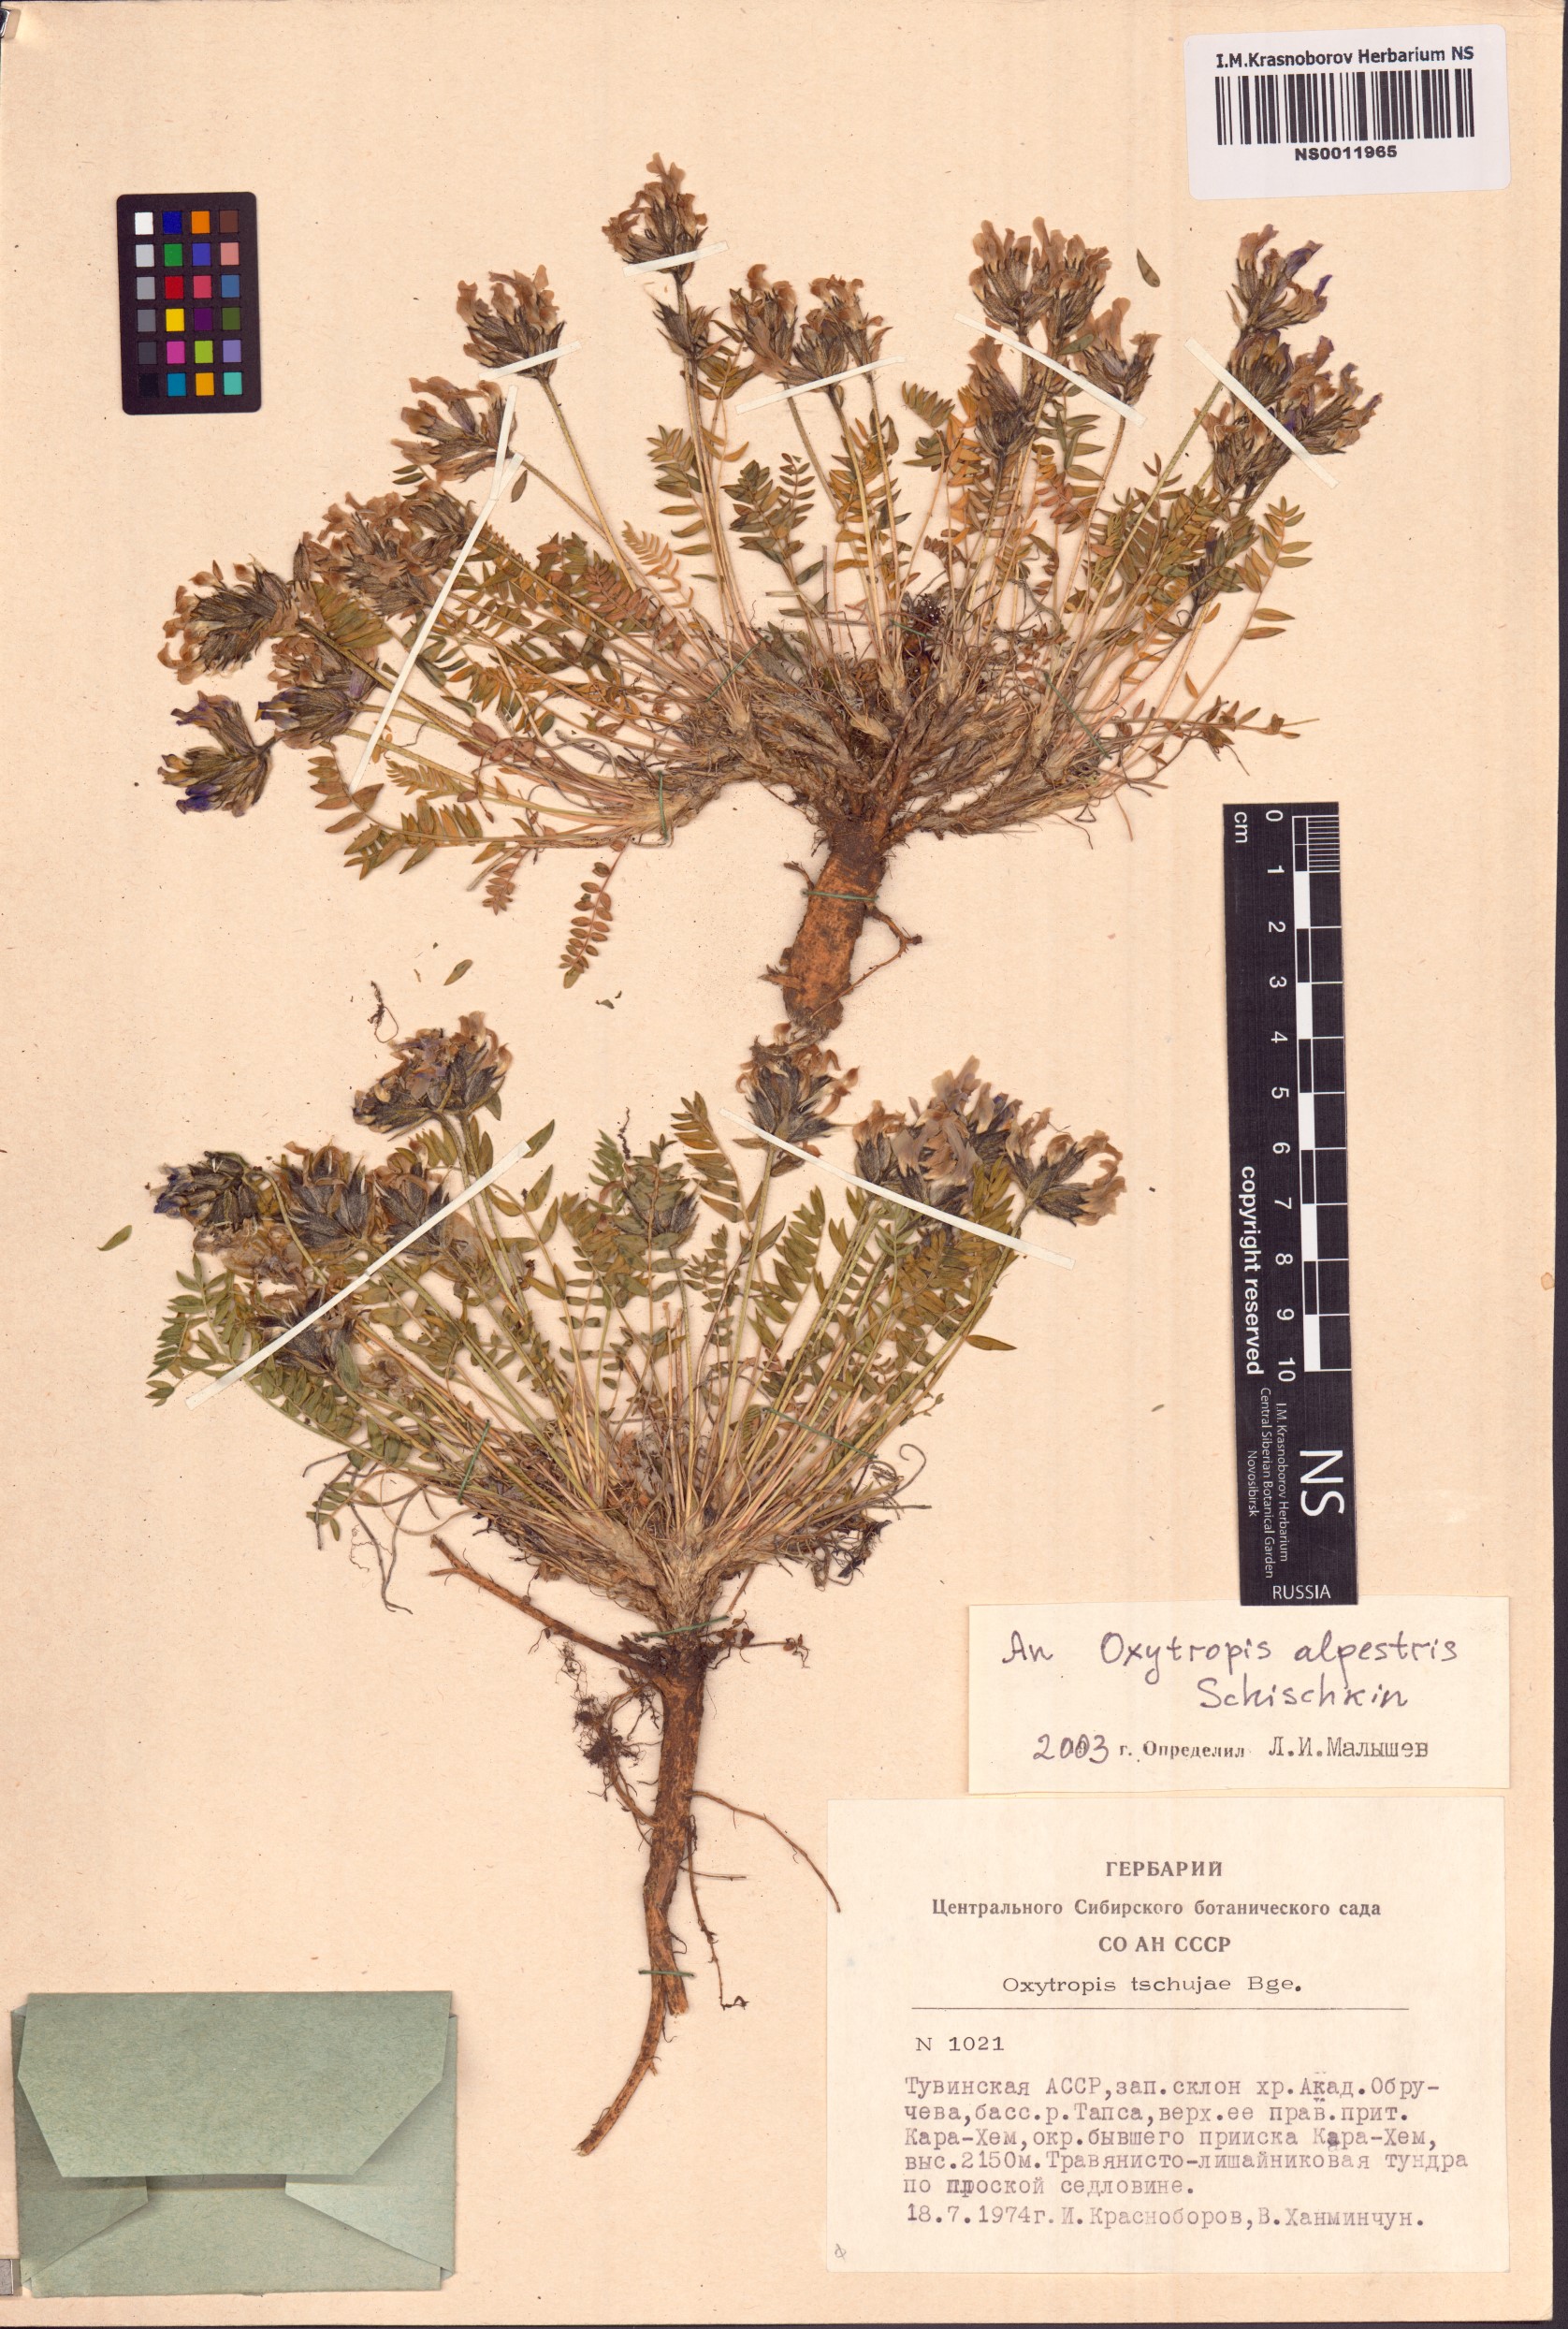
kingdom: Plantae
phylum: Tracheophyta
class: Magnoliopsida
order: Fabales
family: Fabaceae
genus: Oxytropis
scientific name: Oxytropis alpestris
